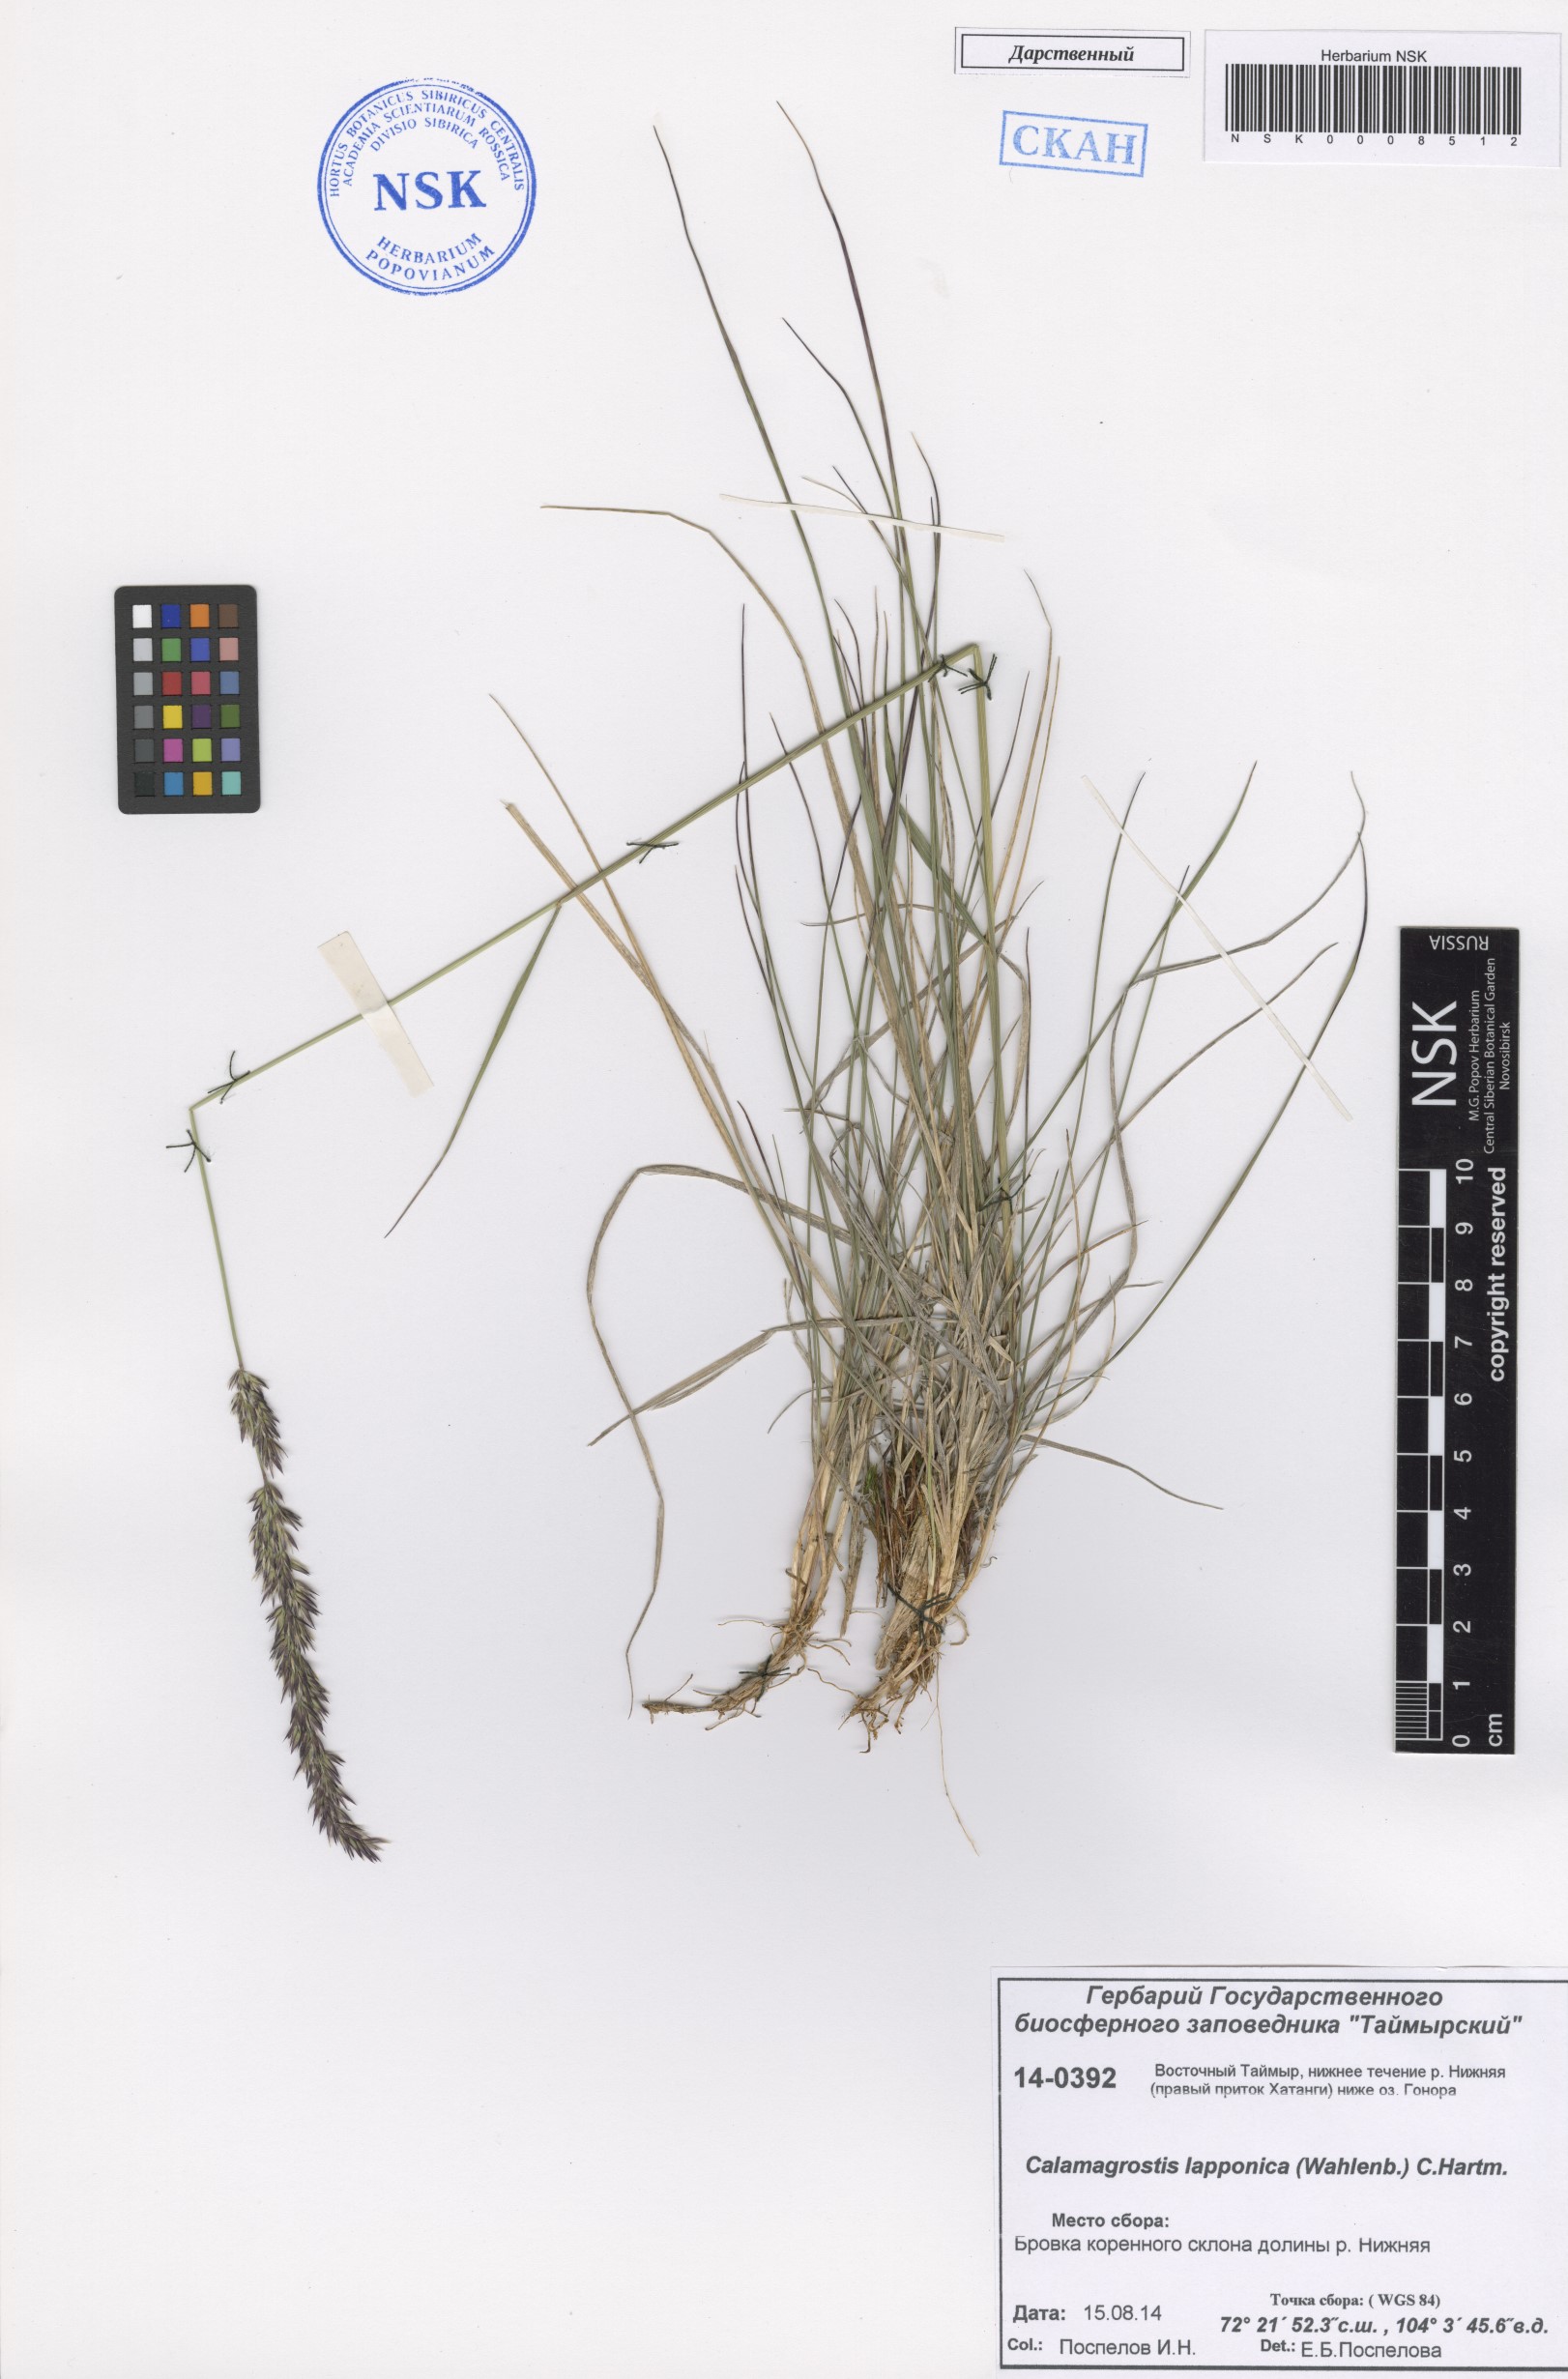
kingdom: Plantae
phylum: Tracheophyta
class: Liliopsida
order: Poales
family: Poaceae
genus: Calamagrostis
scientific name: Calamagrostis lapponica
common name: Lapland reedgrass
